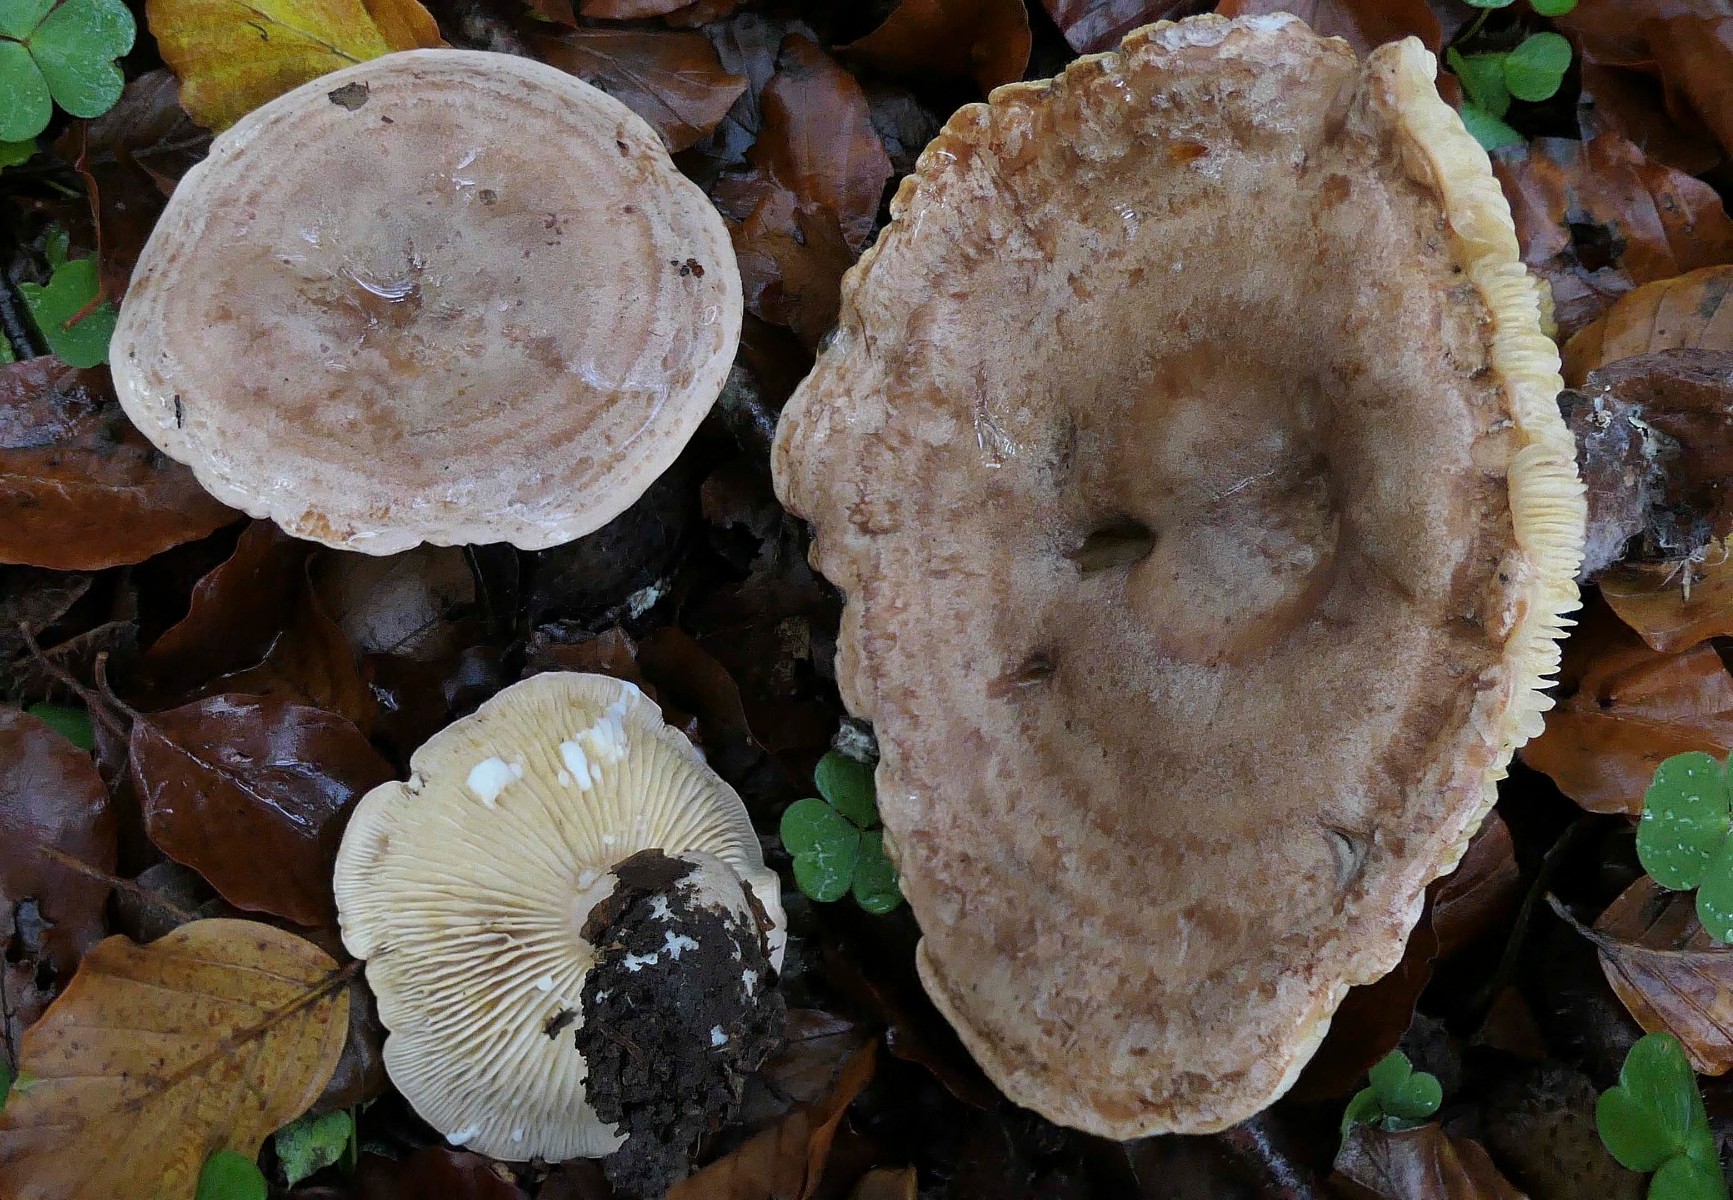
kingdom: Fungi
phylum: Basidiomycota
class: Agaricomycetes
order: Russulales
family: Russulaceae
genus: Lactarius
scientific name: Lactarius circellatus
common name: avnbøg-mælkehat
